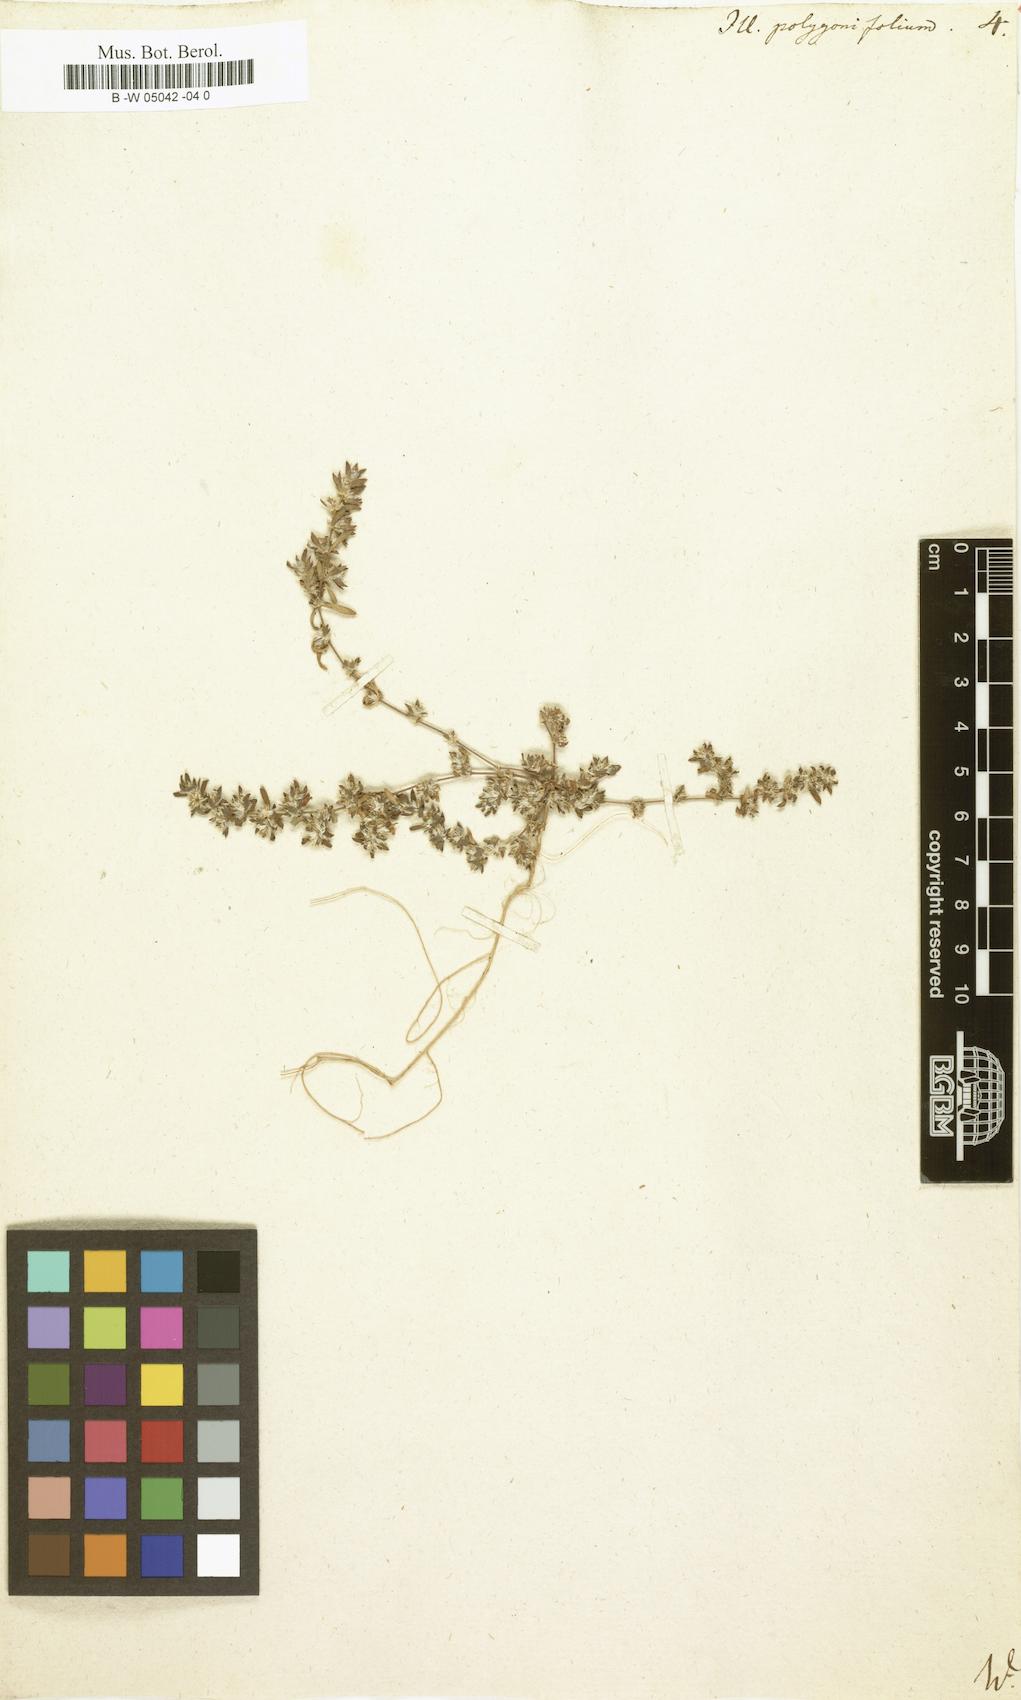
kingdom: Plantae
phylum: Tracheophyta
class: Magnoliopsida
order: Caryophyllales
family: Caryophyllaceae
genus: Paronychia
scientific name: Paronychia polygonifolia
